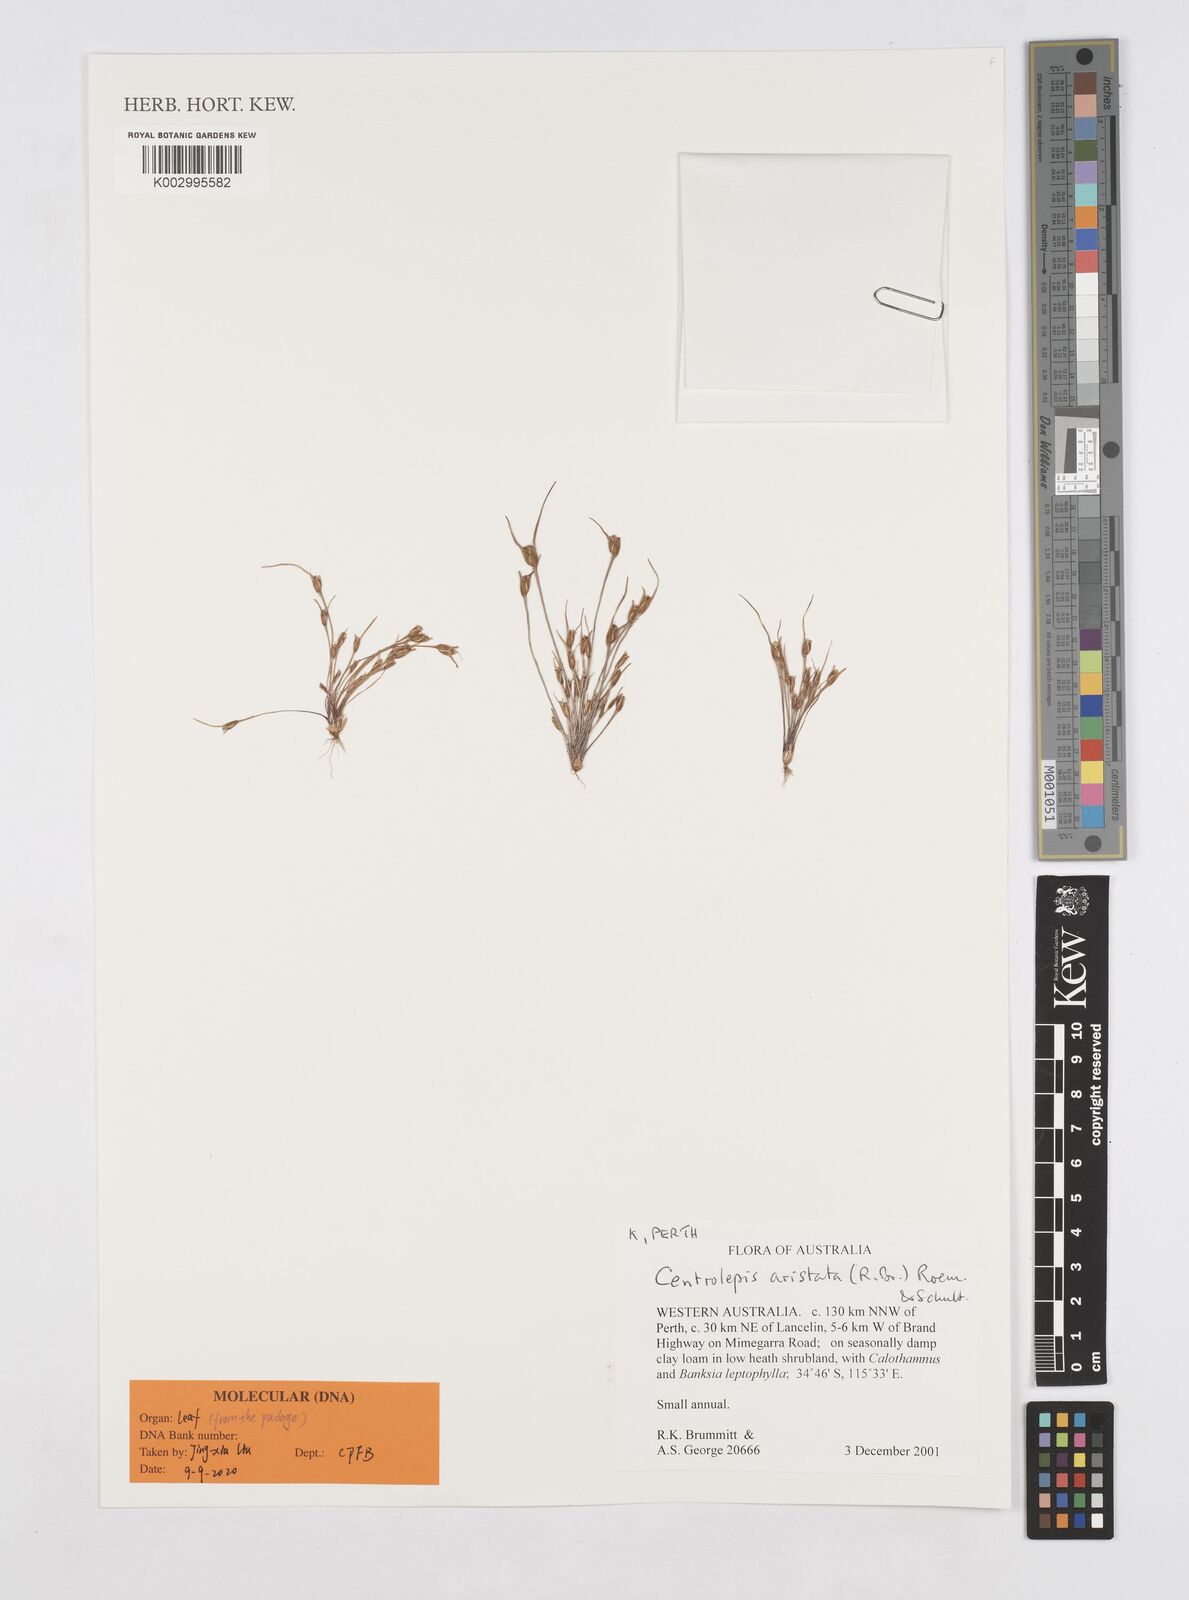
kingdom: Plantae
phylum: Tracheophyta
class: Liliopsida
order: Poales
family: Restionaceae
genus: Centrolepis
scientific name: Centrolepis aristata
